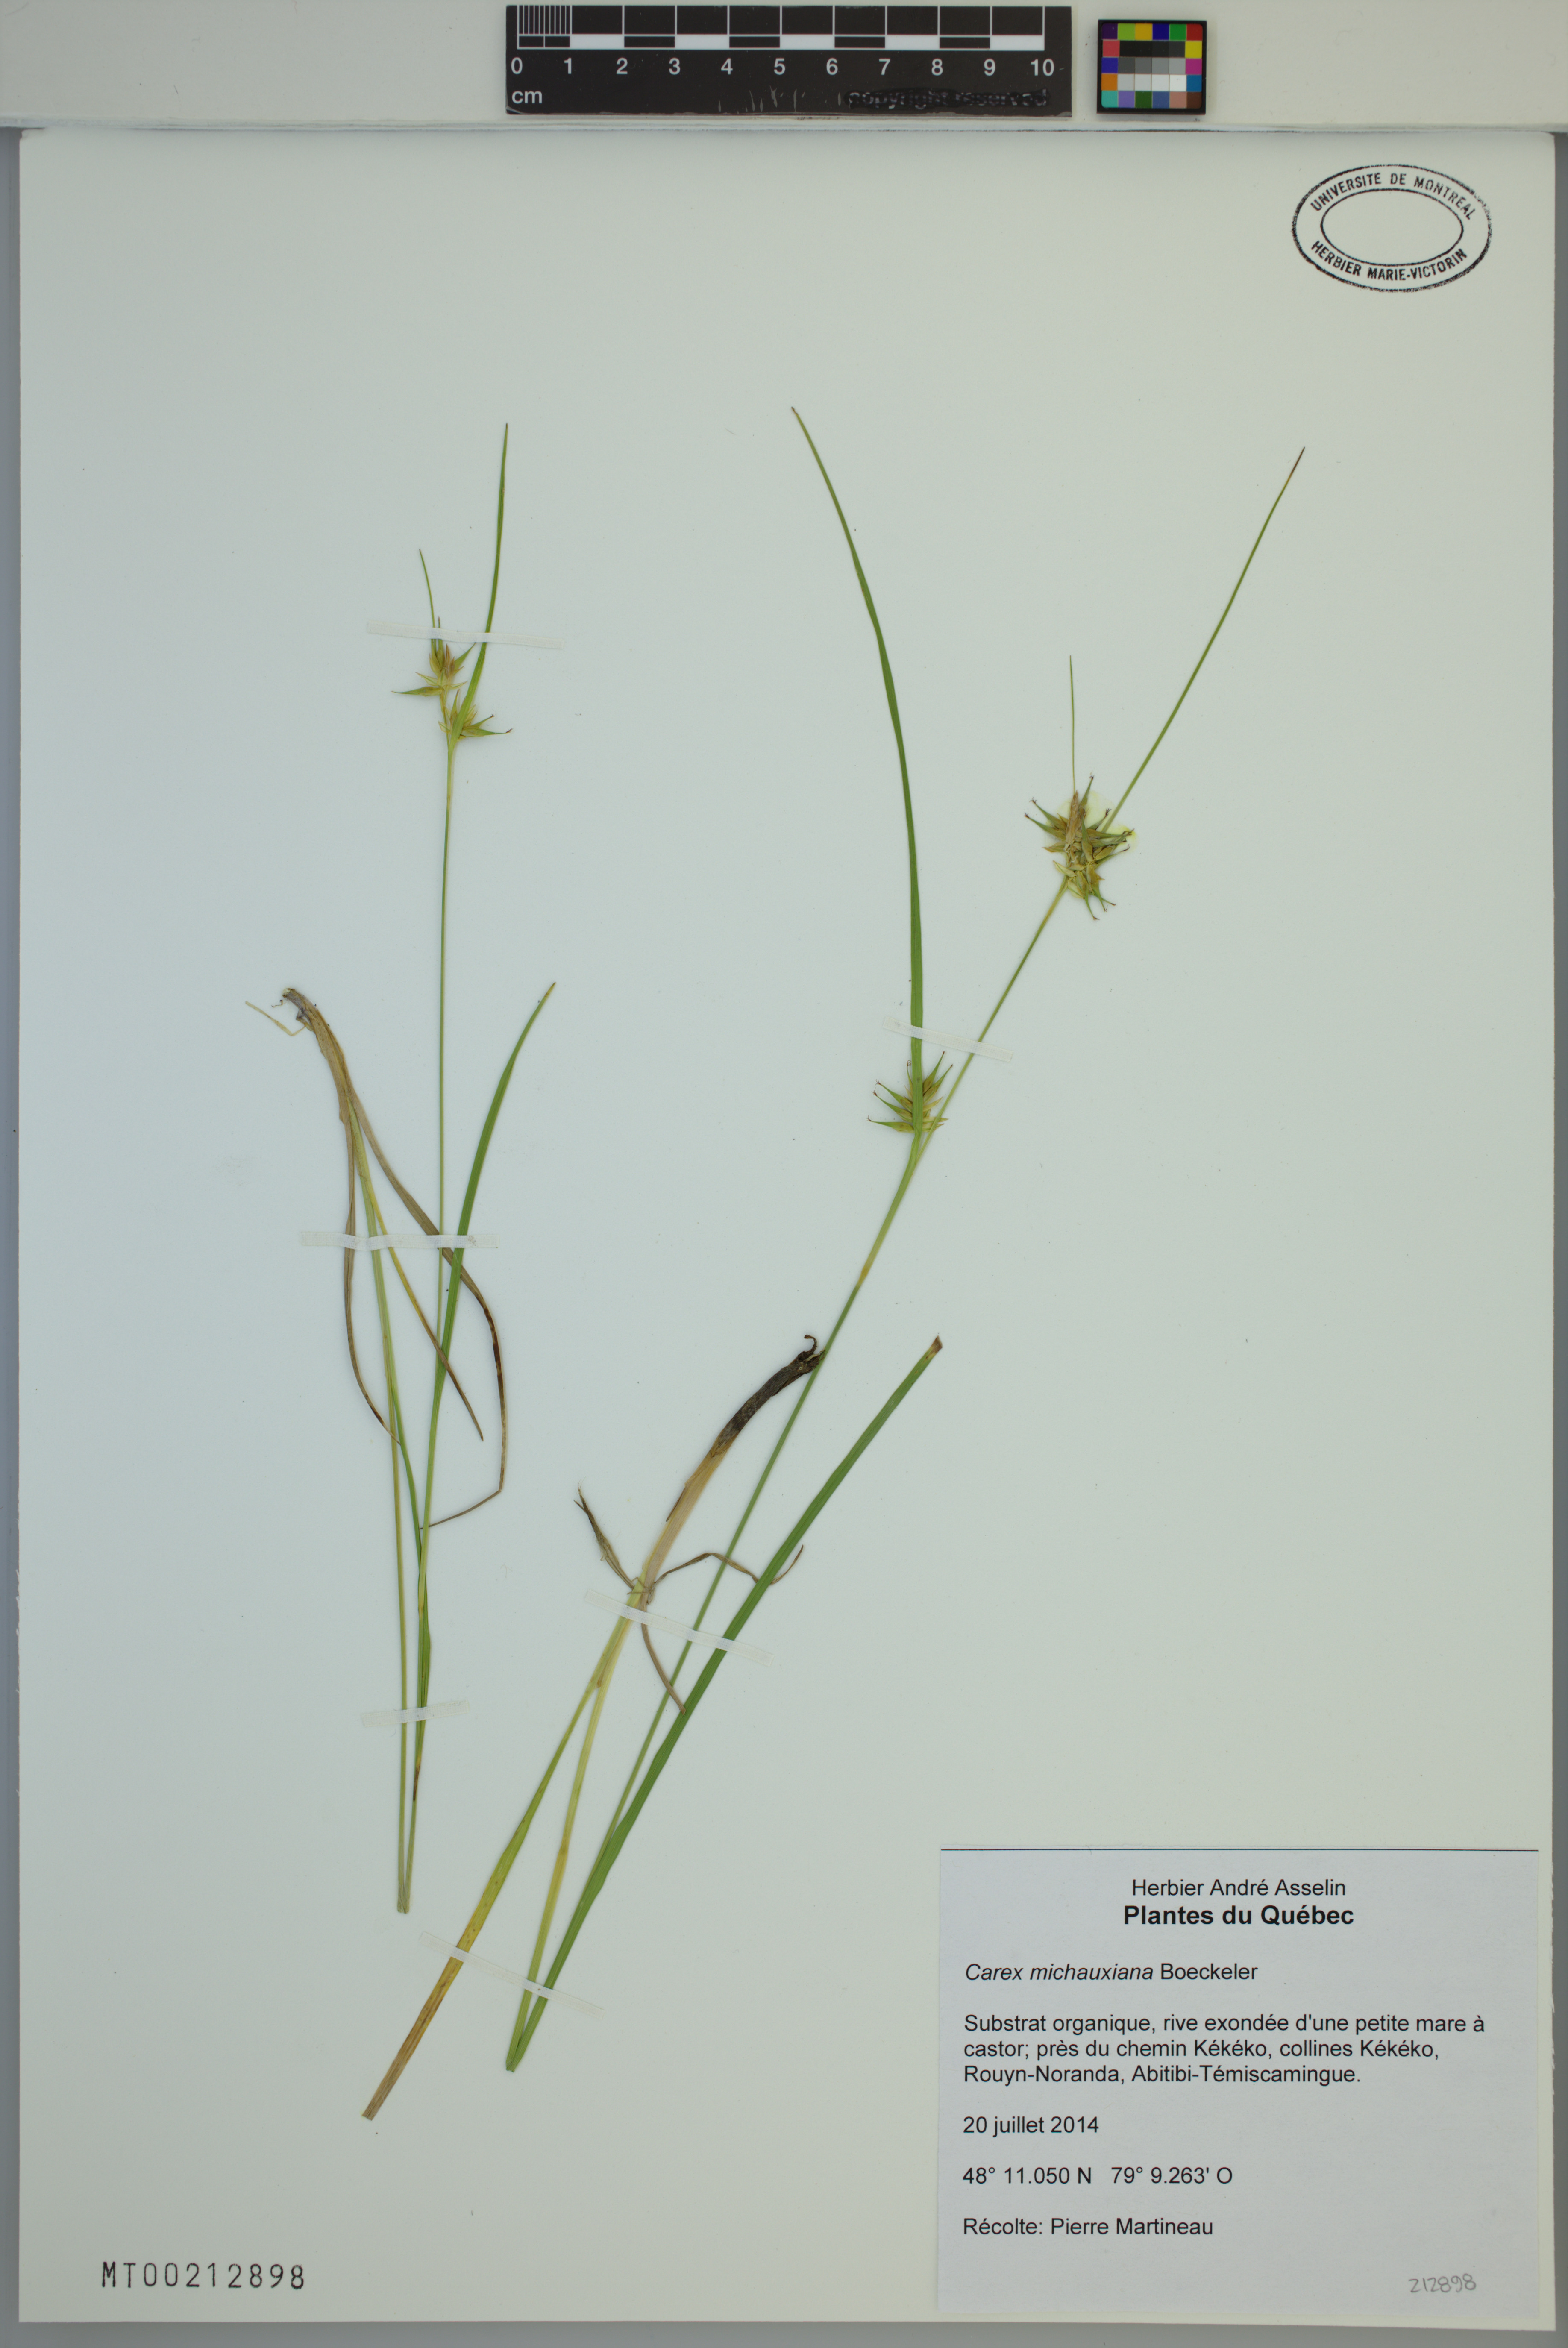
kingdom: Plantae
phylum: Tracheophyta
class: Liliopsida
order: Poales
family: Cyperaceae
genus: Carex
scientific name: Carex michauxiana
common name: Michaux's sedge
